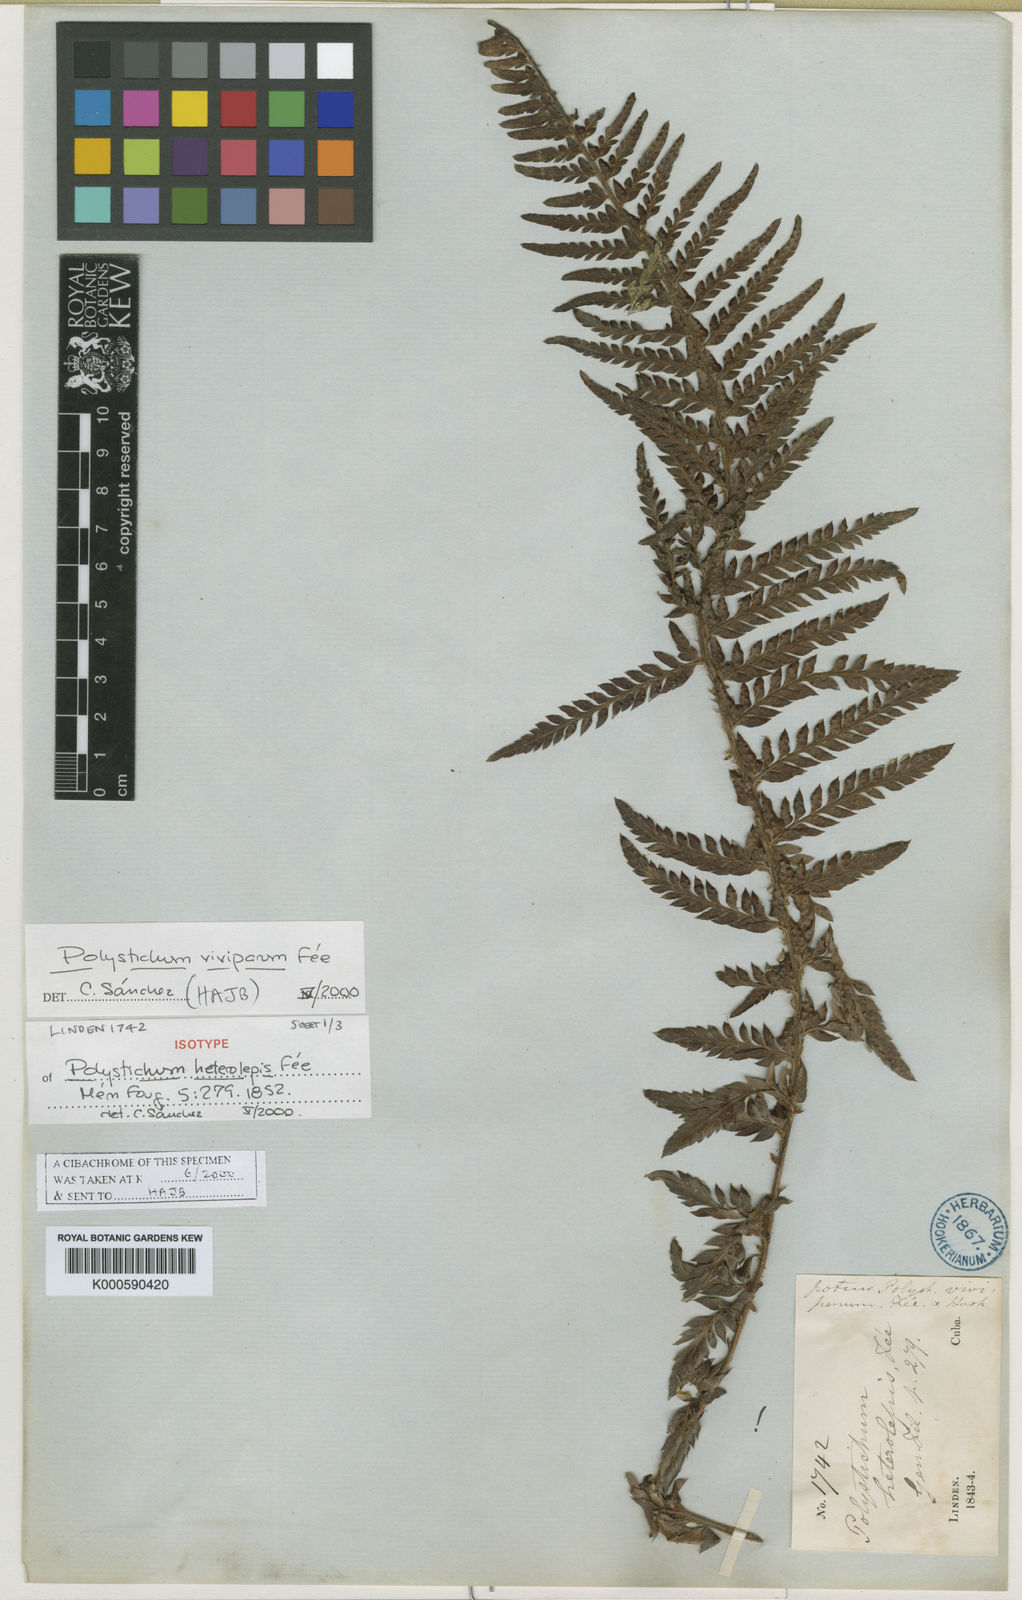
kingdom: Plantae
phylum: Tracheophyta
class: Polypodiopsida
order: Polypodiales
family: Dryopteridaceae
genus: Polystichum
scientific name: Polystichum trapezoides
